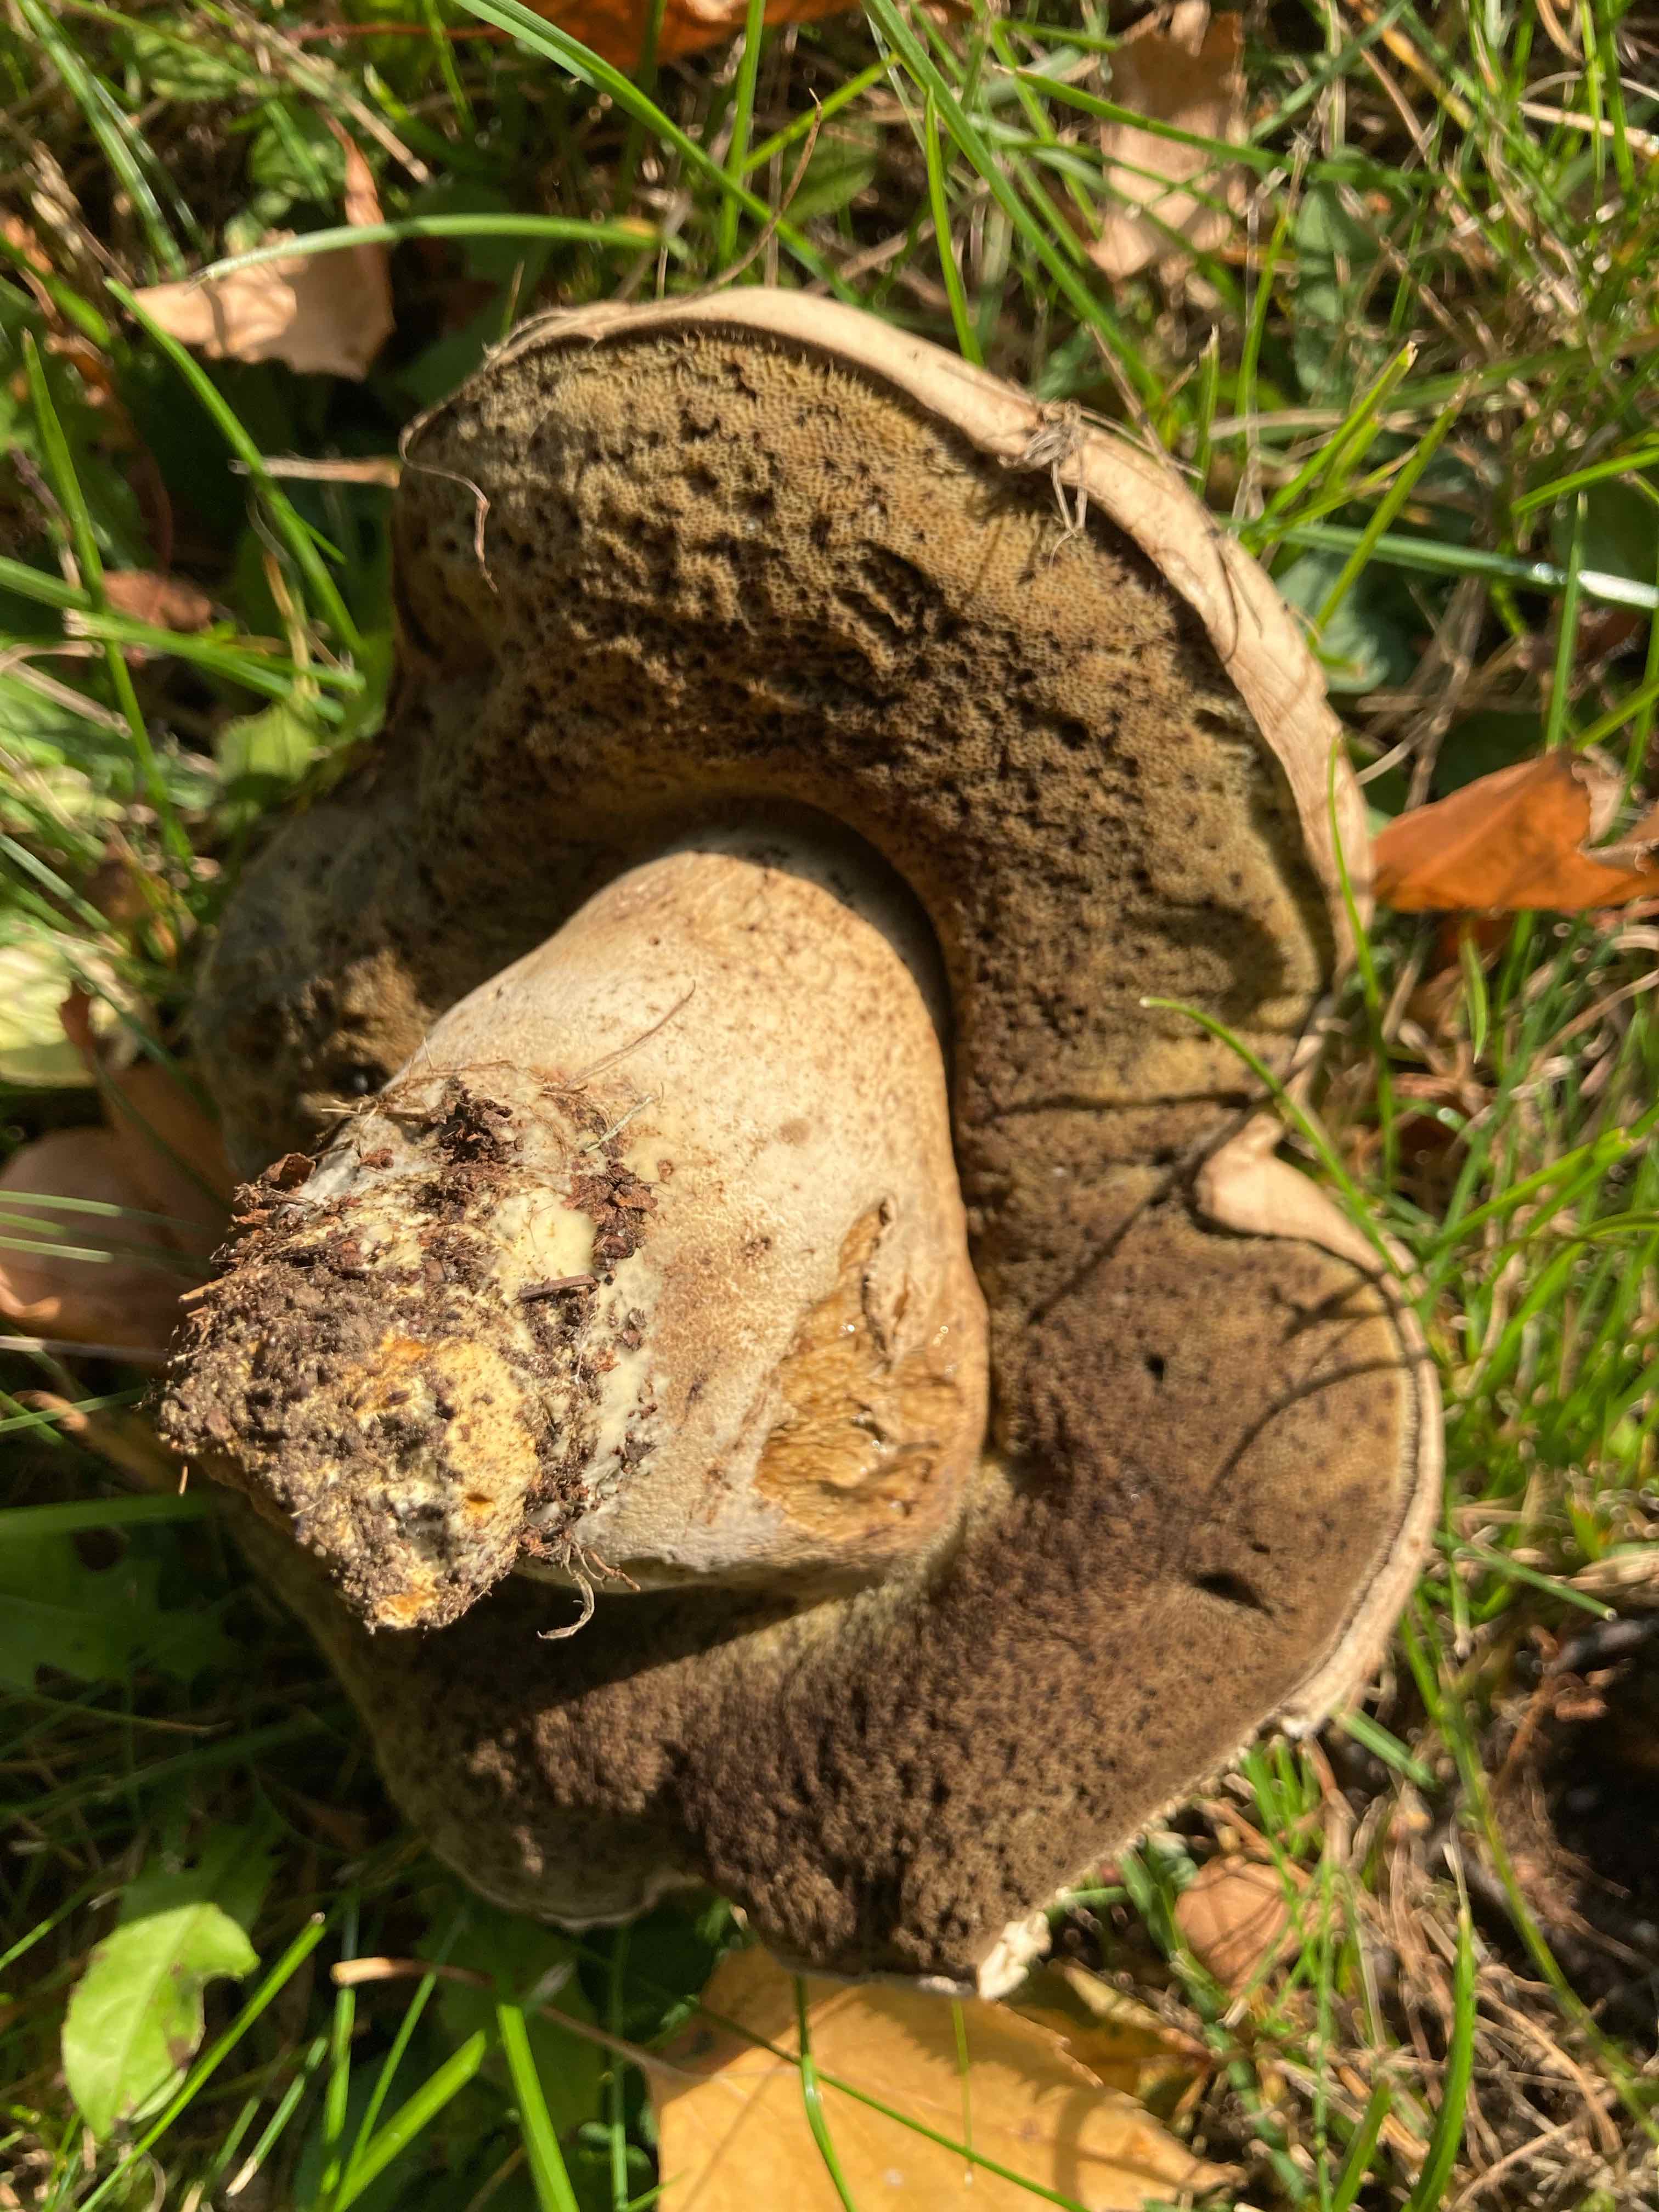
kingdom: Fungi
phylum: Basidiomycota
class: Agaricomycetes
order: Boletales
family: Boletaceae
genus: Caloboletus
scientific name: Caloboletus radicans
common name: rod-rørhat
